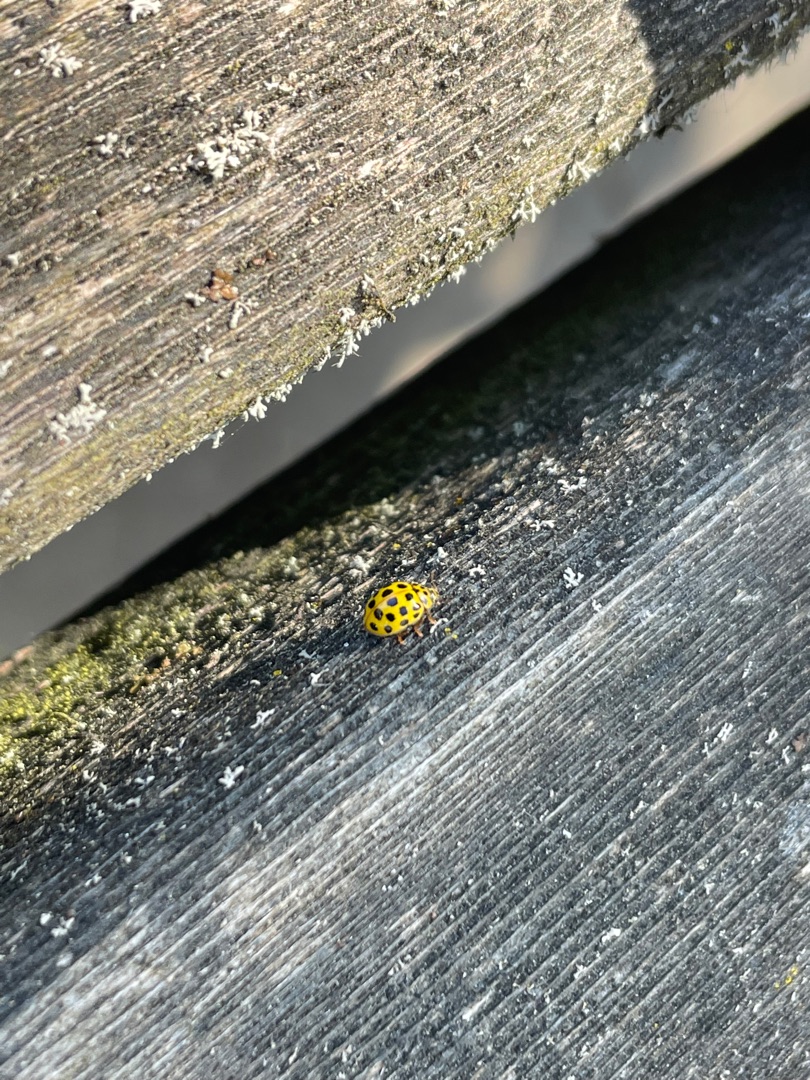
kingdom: Animalia
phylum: Arthropoda
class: Insecta
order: Coleoptera
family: Coccinellidae
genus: Psyllobora
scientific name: Psyllobora vigintiduopunctata
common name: Toogtyveplettet mariehøne
